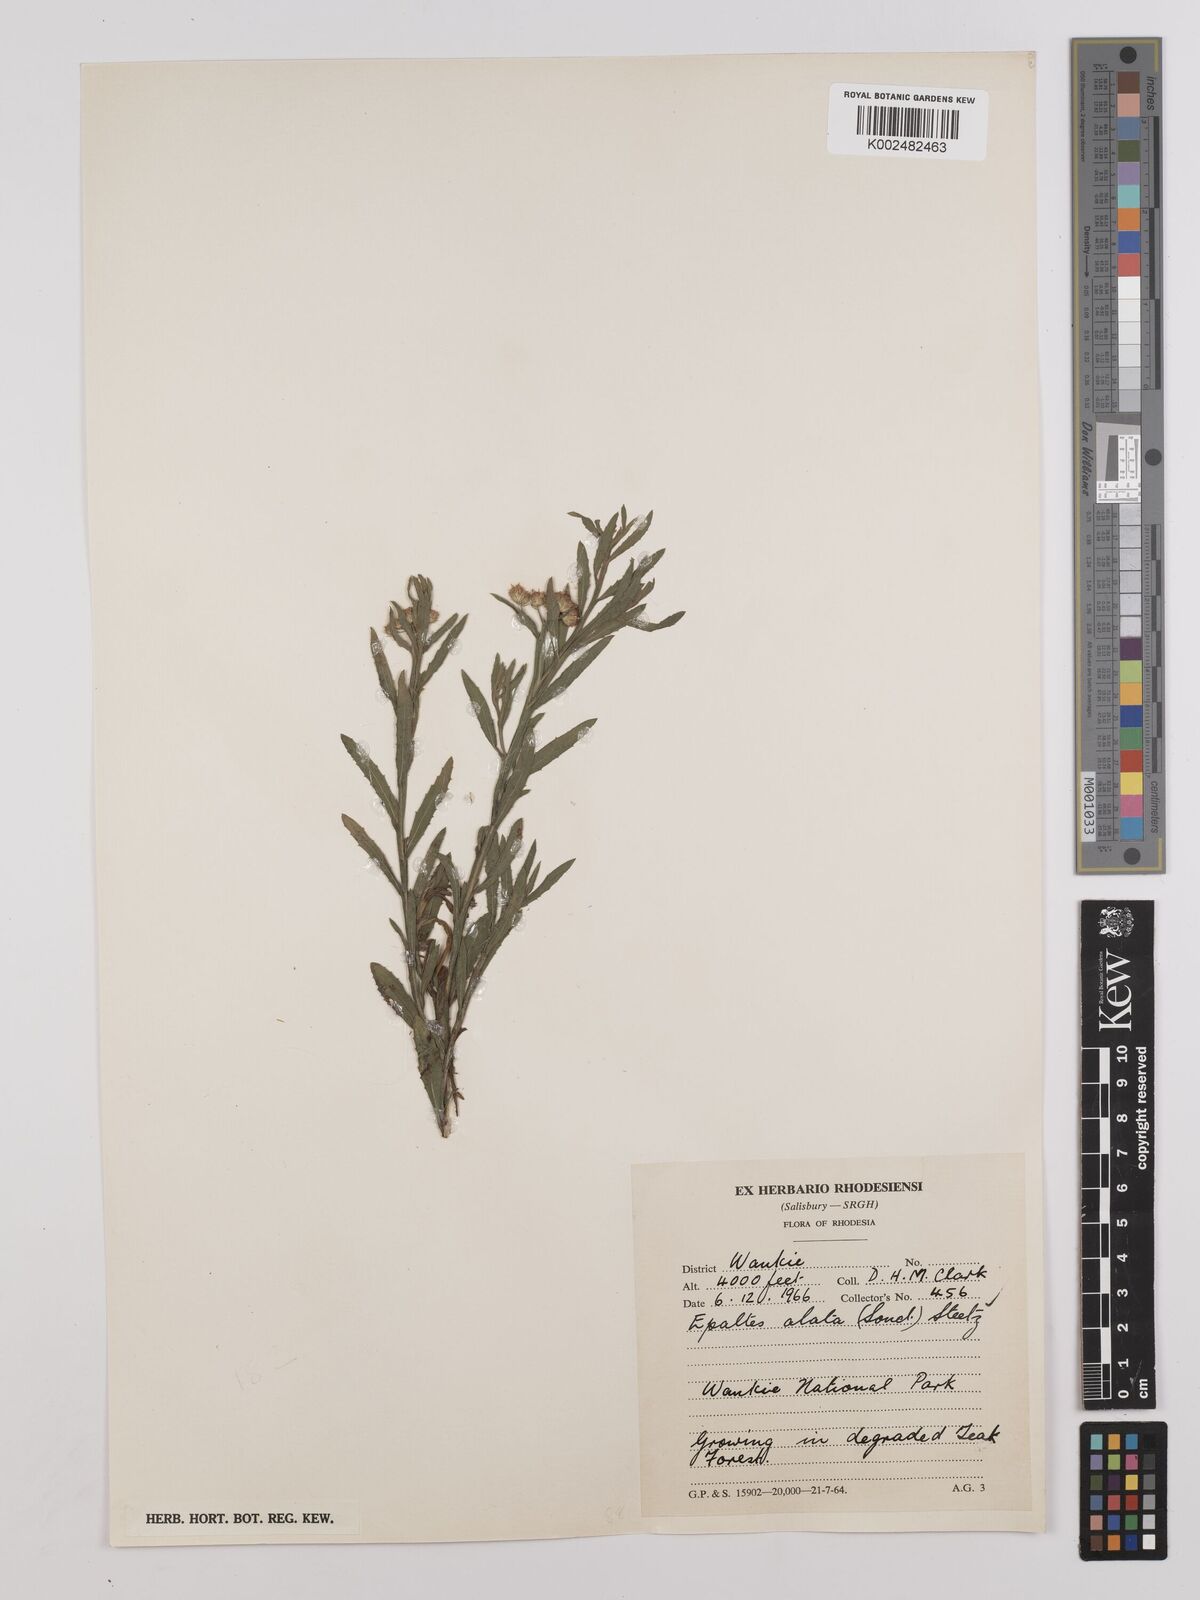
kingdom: Plantae
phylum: Tracheophyta
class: Magnoliopsida
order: Asterales
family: Asteraceae
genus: Litogyne
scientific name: Litogyne gariepina
